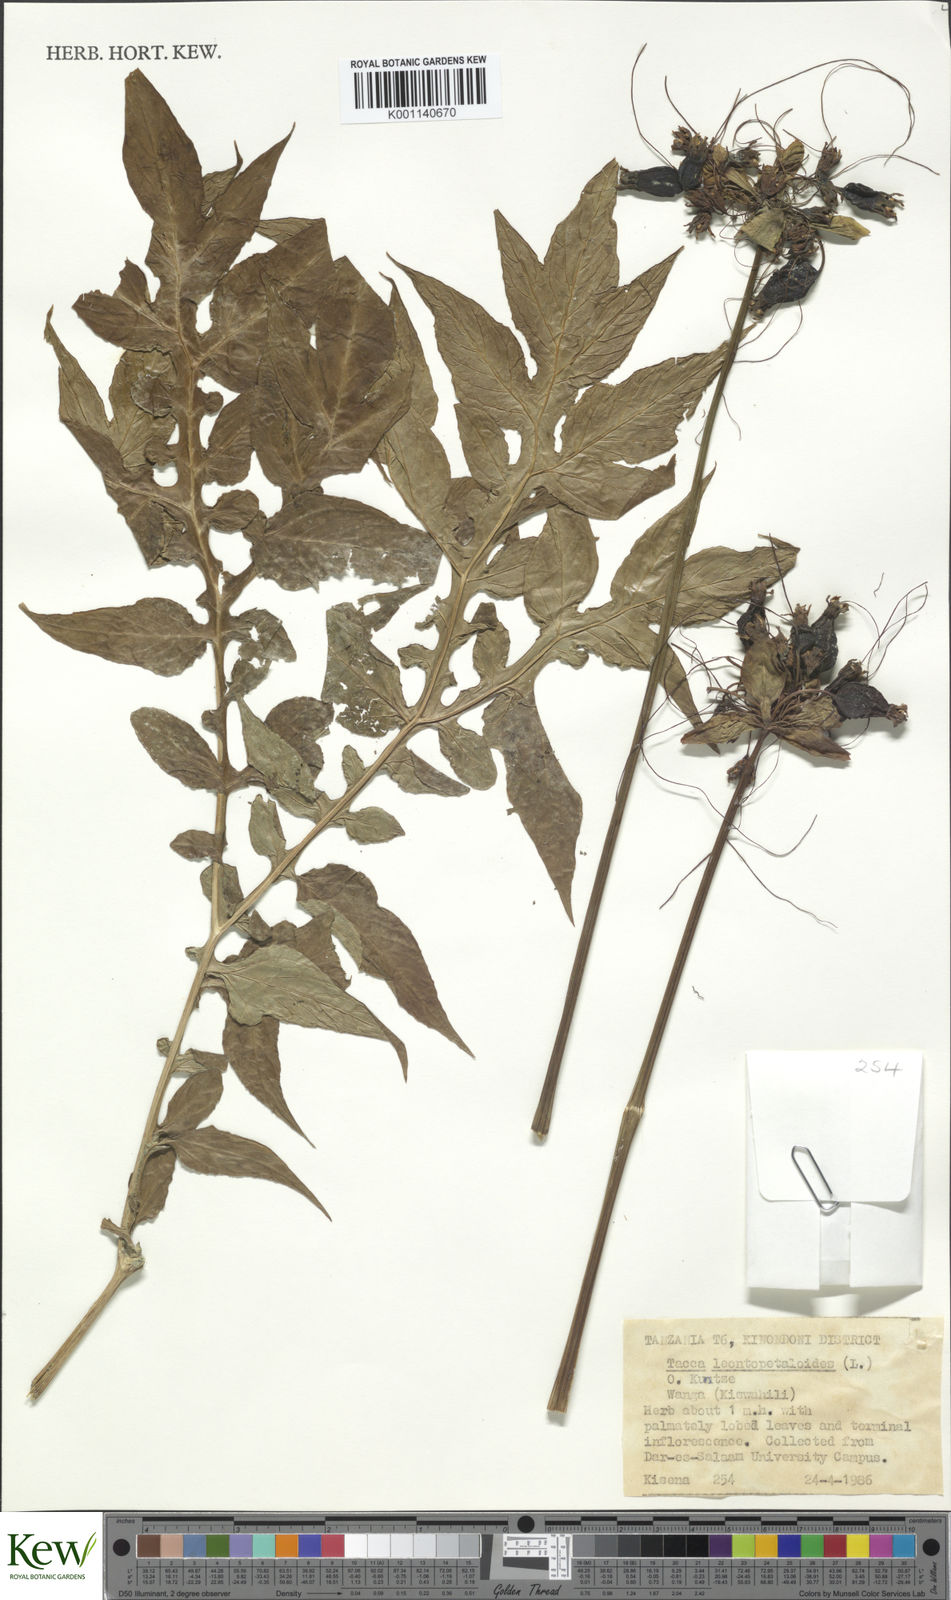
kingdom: Plantae
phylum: Tracheophyta
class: Liliopsida
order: Dioscoreales
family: Dioscoreaceae
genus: Tacca
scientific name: Tacca leontopetaloides
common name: Arrowroot
